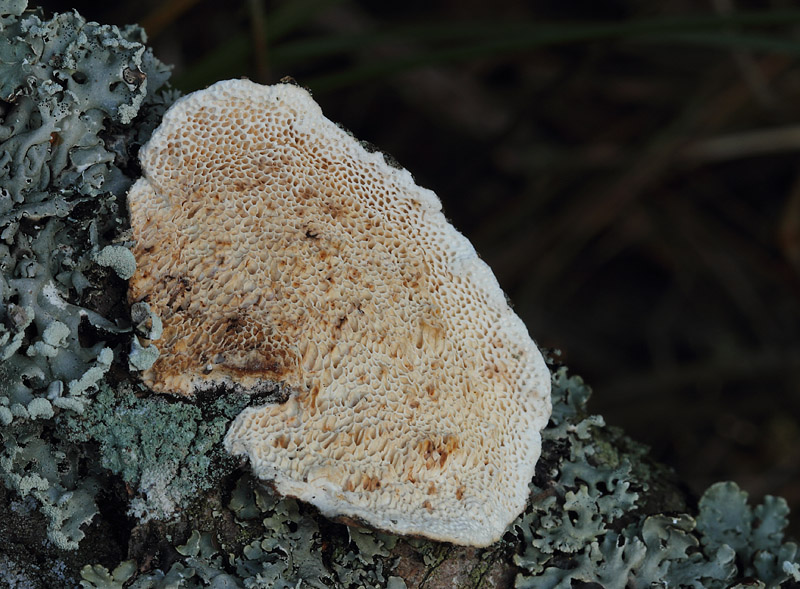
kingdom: Fungi
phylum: Basidiomycota
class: Agaricomycetes
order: Polyporales
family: Fomitopsidaceae
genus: Fomitopsis
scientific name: Fomitopsis
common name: fyrre-skiveporesvamp
